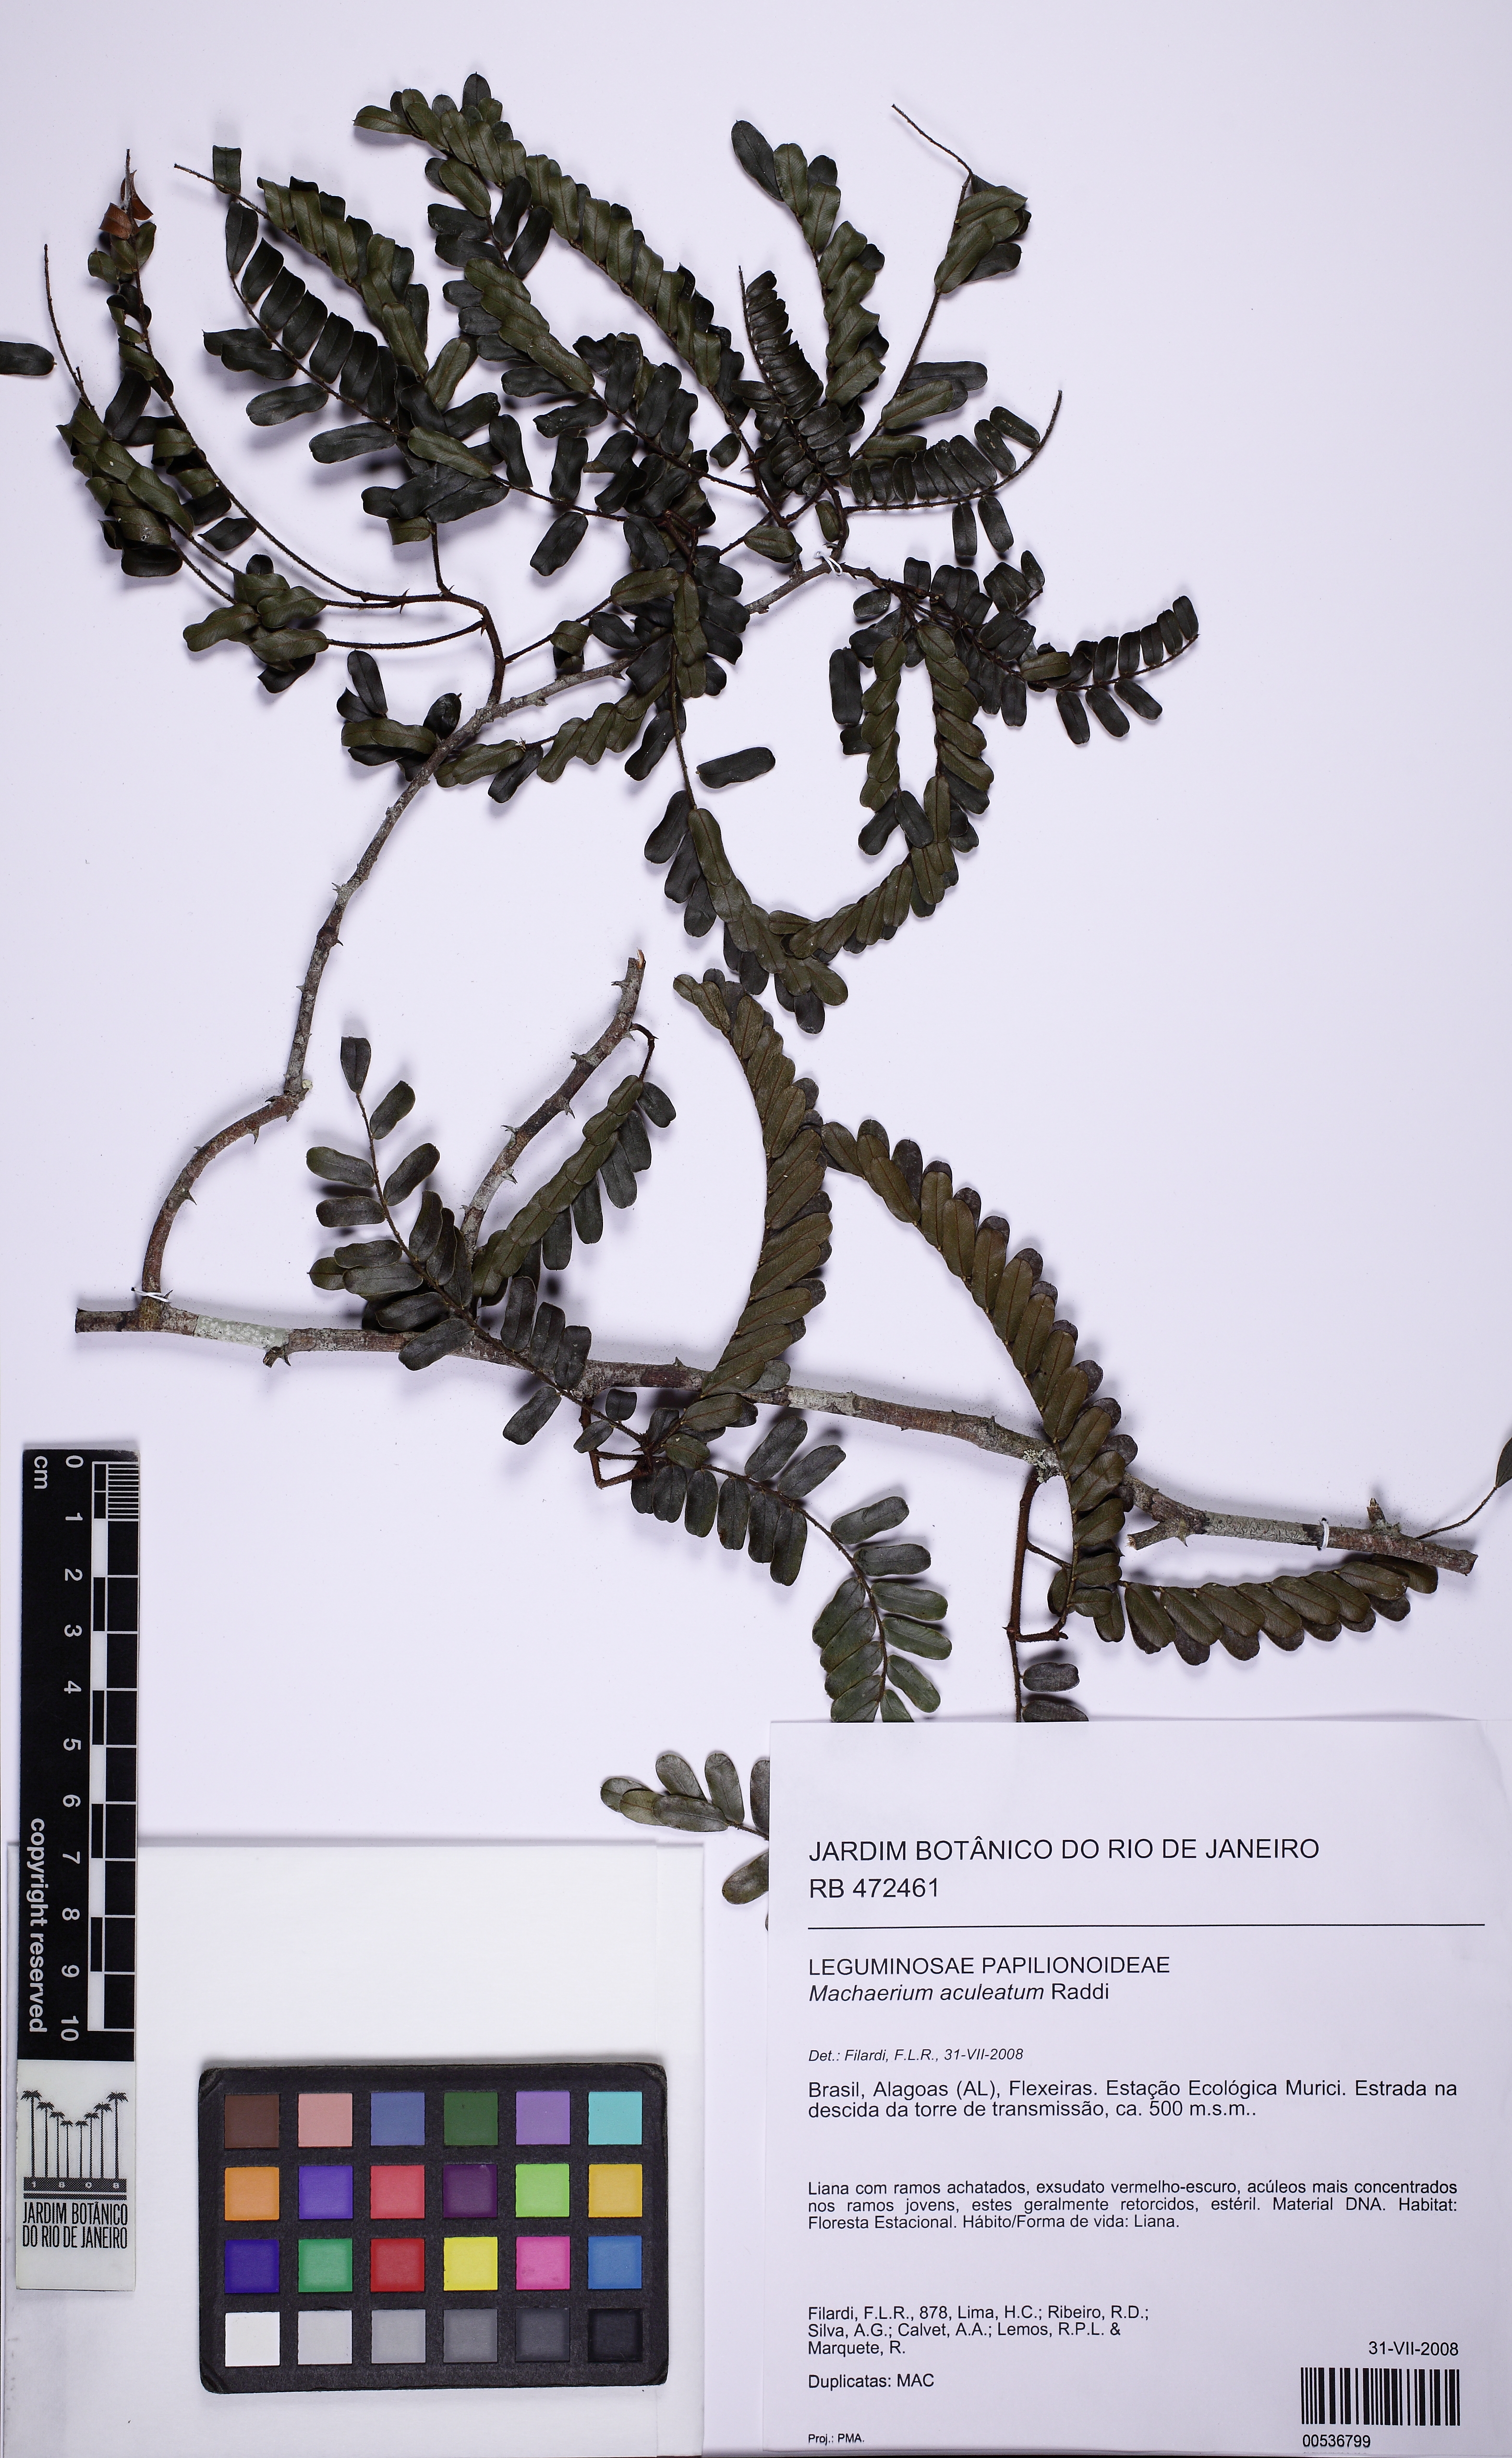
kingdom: Plantae
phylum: Tracheophyta
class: Magnoliopsida
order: Fabales
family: Fabaceae
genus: Machaerium
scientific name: Machaerium aculeatum
